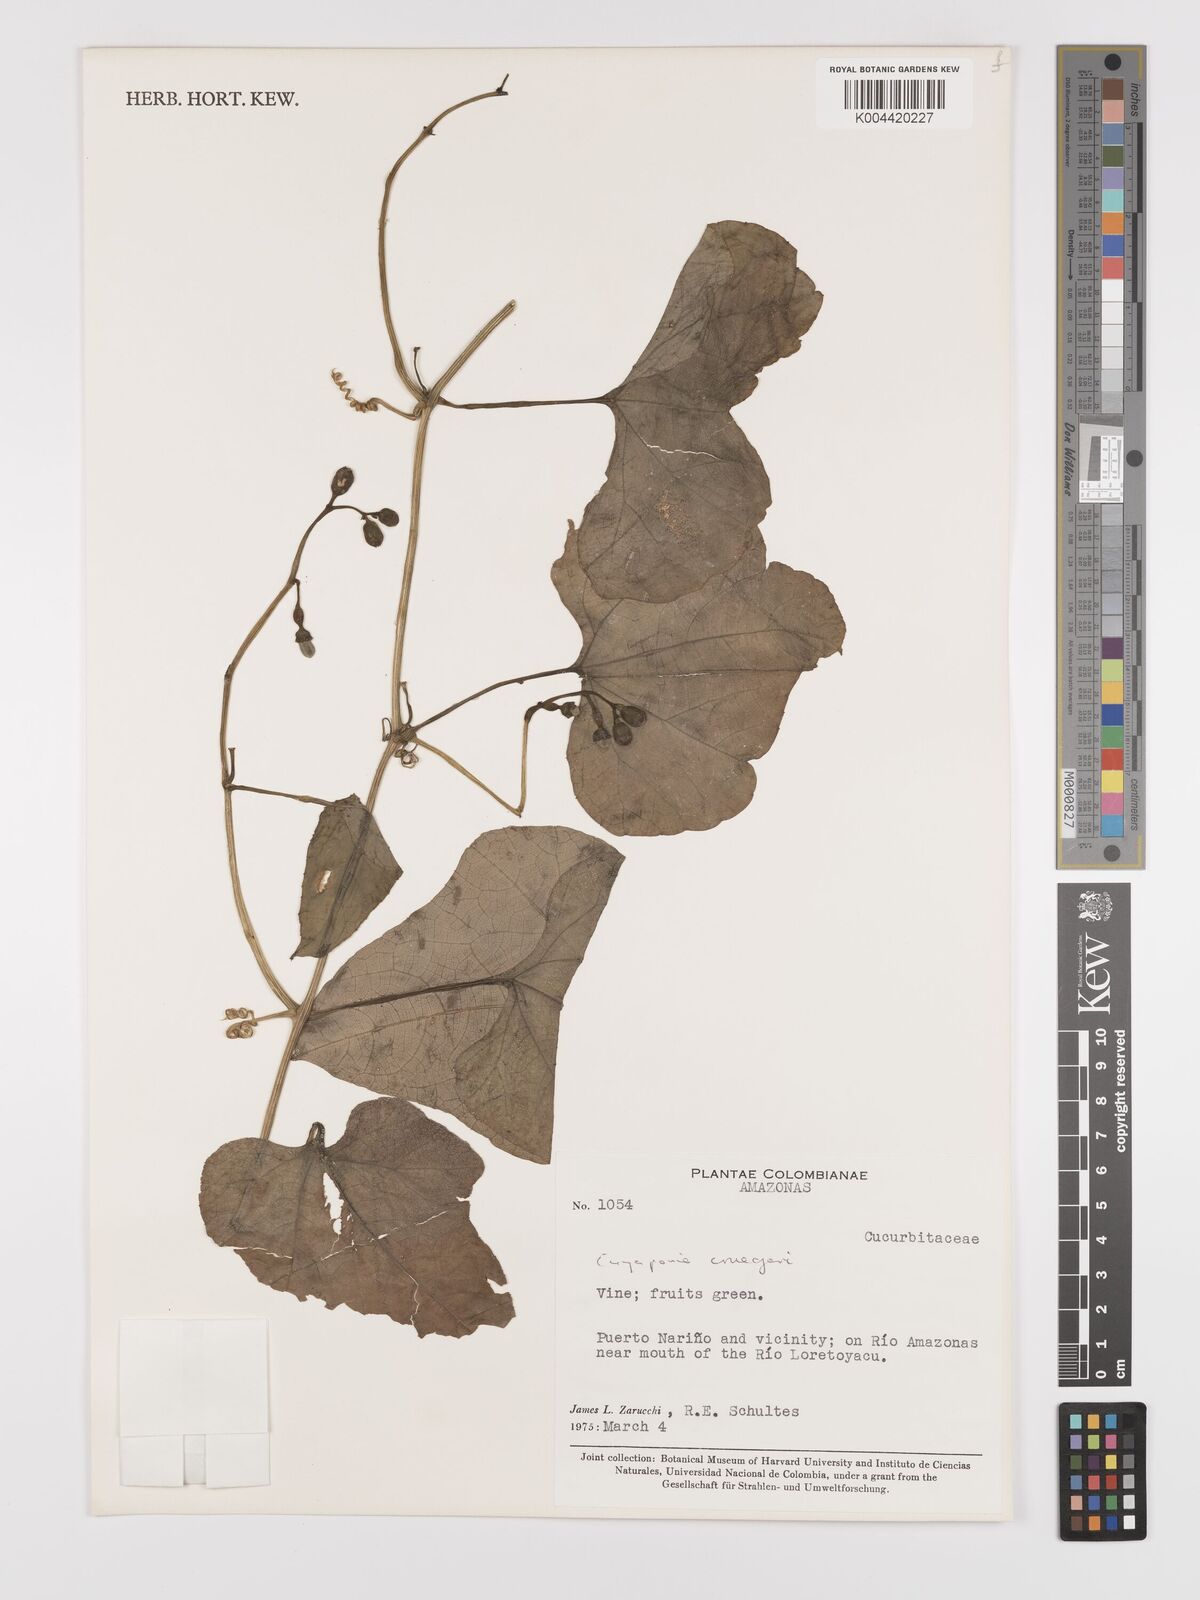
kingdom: Plantae
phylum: Tracheophyta
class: Magnoliopsida
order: Cucurbitales
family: Cucurbitaceae
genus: Cayaponia
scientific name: Cayaponia cruegeri
